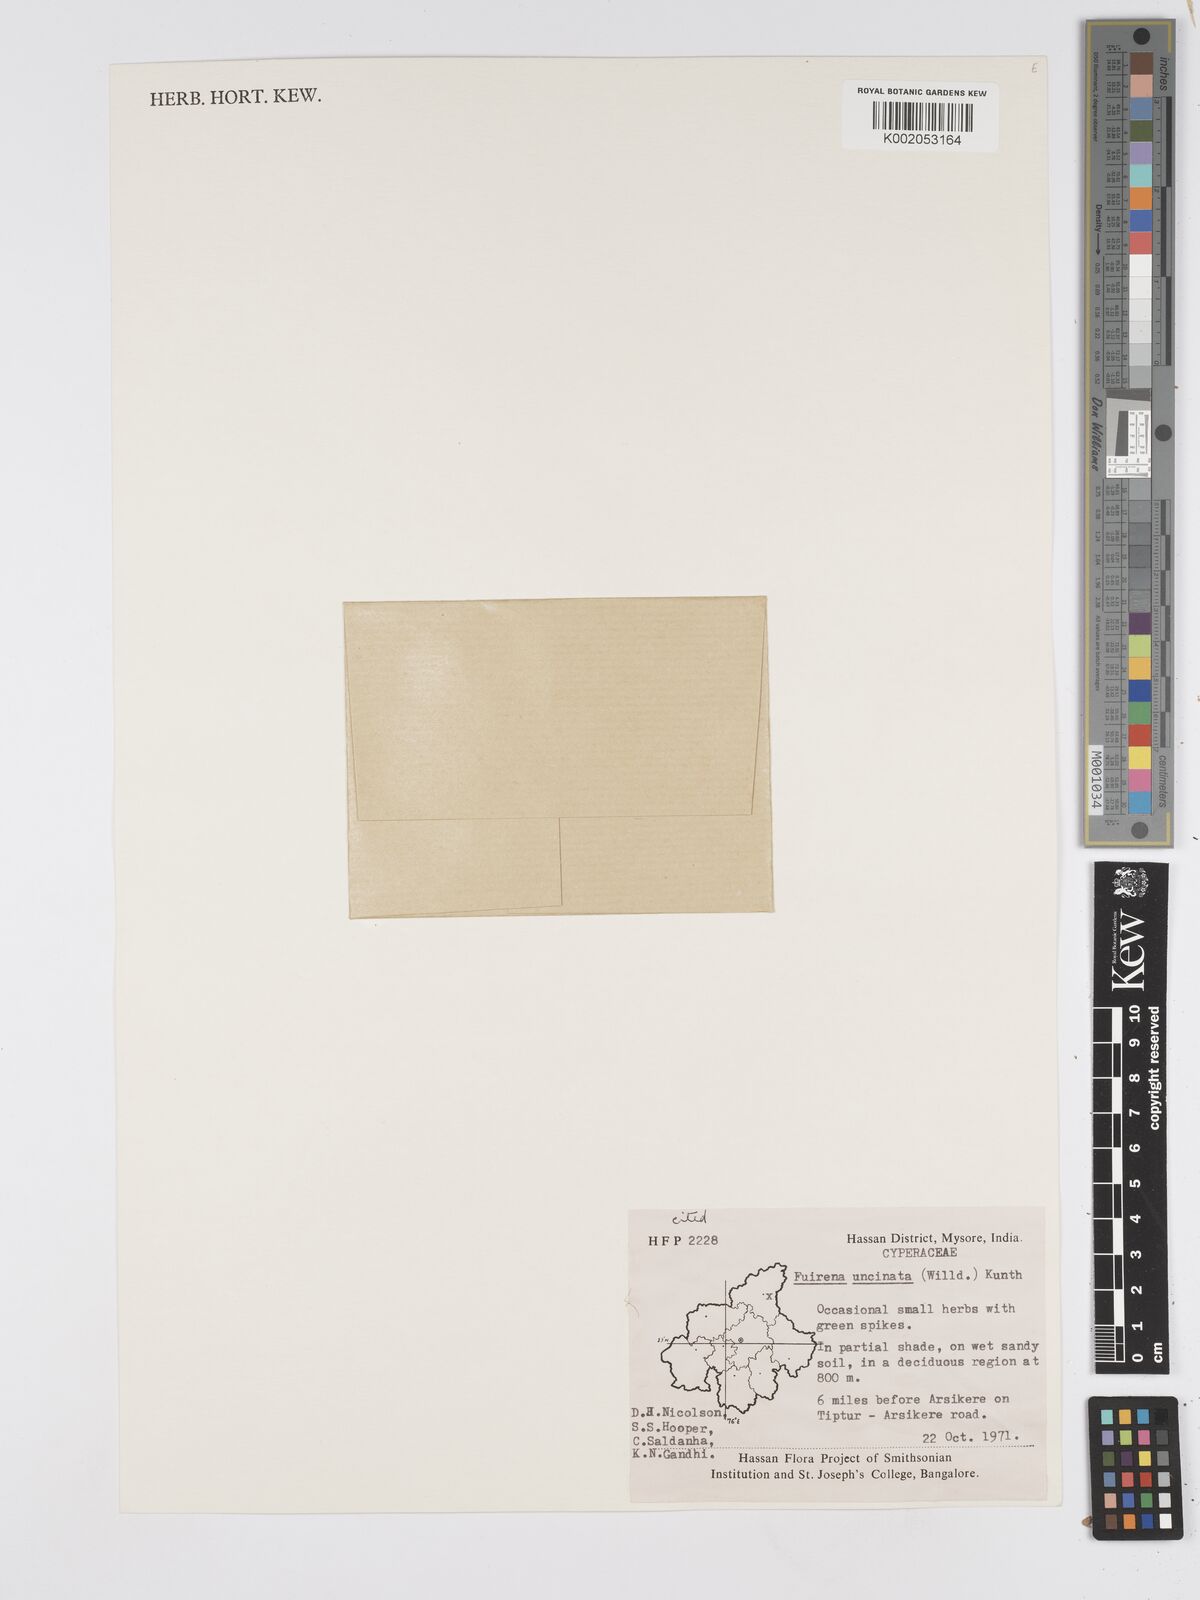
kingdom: Plantae
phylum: Tracheophyta
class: Liliopsida
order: Poales
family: Cyperaceae
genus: Fuirena
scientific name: Fuirena uncinata
